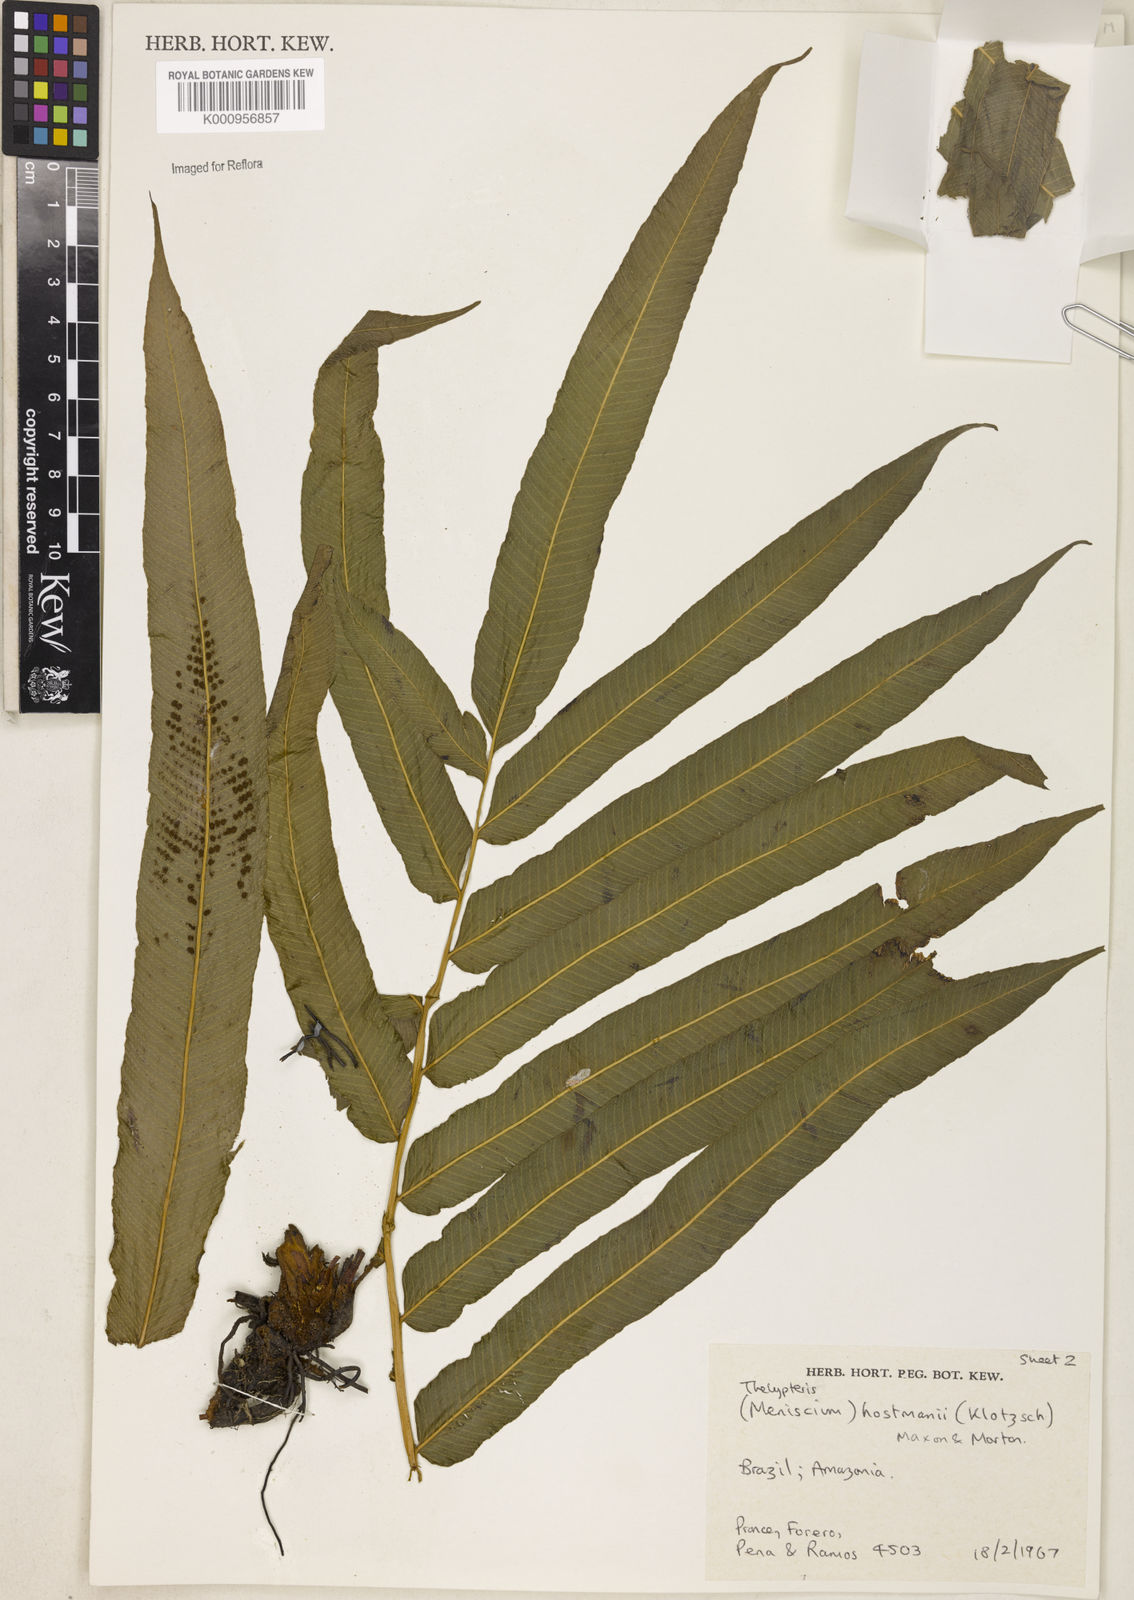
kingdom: Plantae
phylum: Tracheophyta
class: Polypodiopsida
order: Polypodiales
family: Thelypteridaceae
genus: Meniscium
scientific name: Meniscium arborescens
